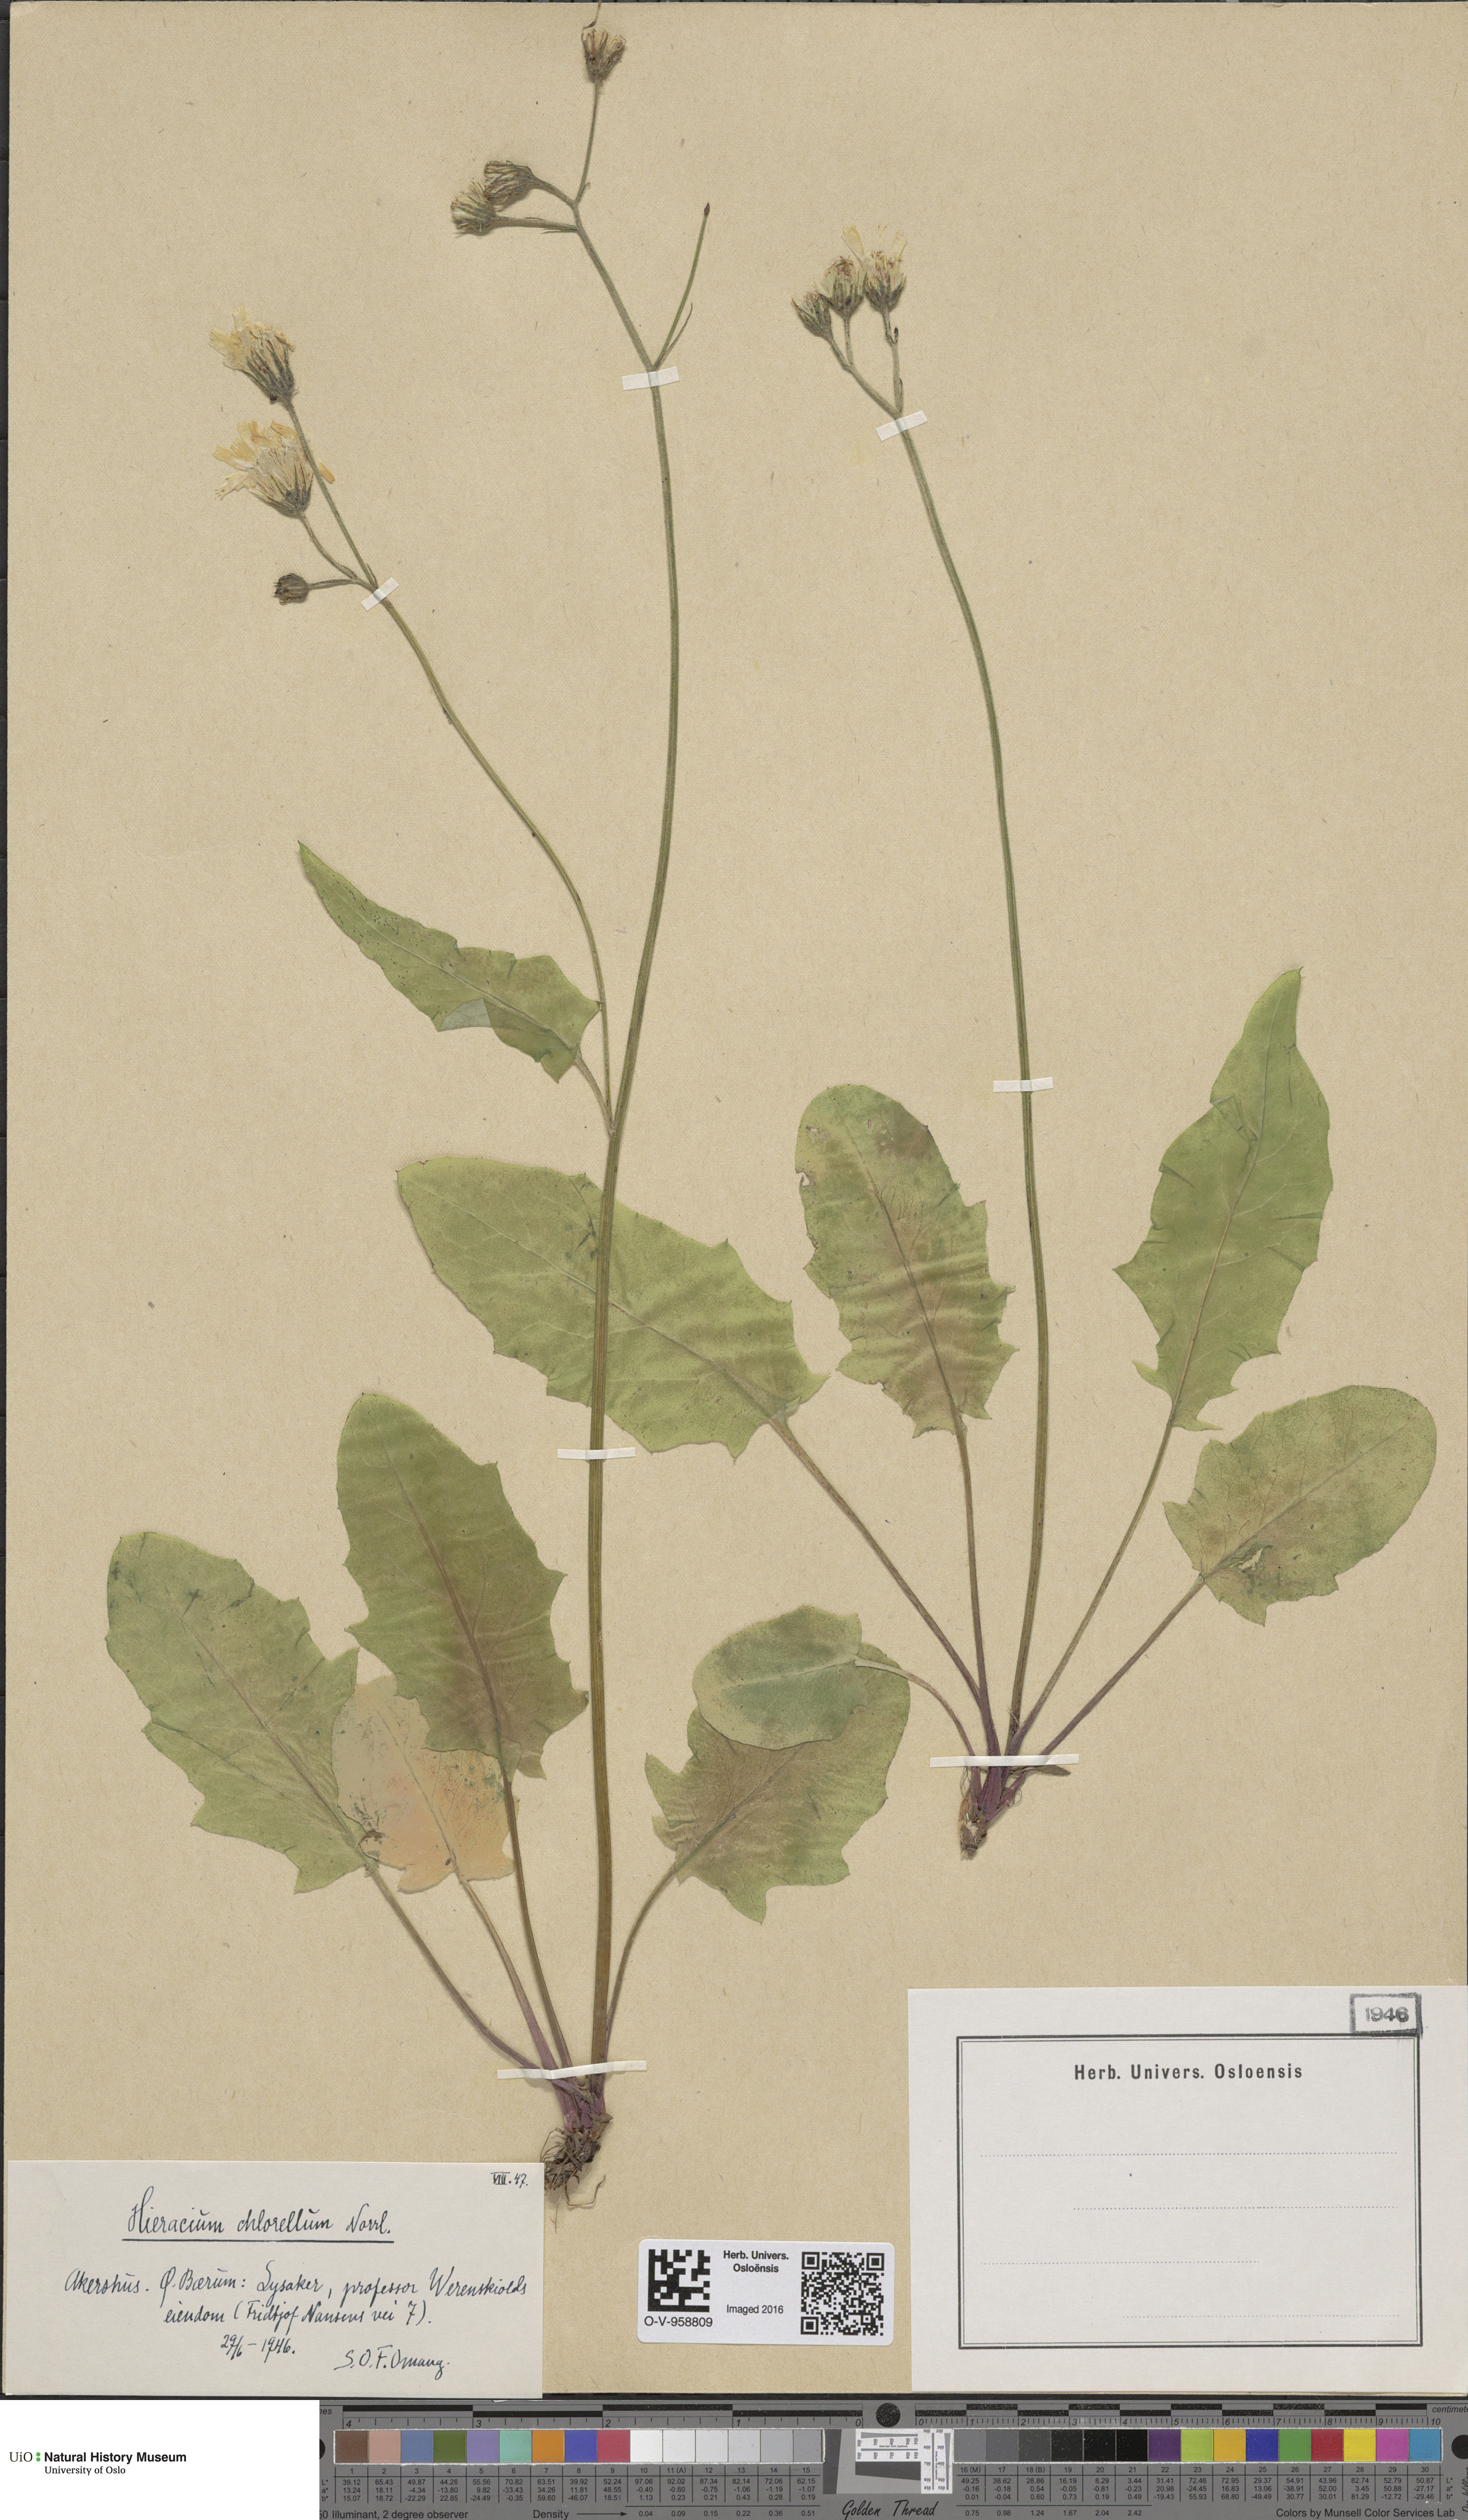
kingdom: Plantae
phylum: Tracheophyta
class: Magnoliopsida
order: Asterales
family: Asteraceae
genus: Hieracium
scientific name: Hieracium chlorellum
